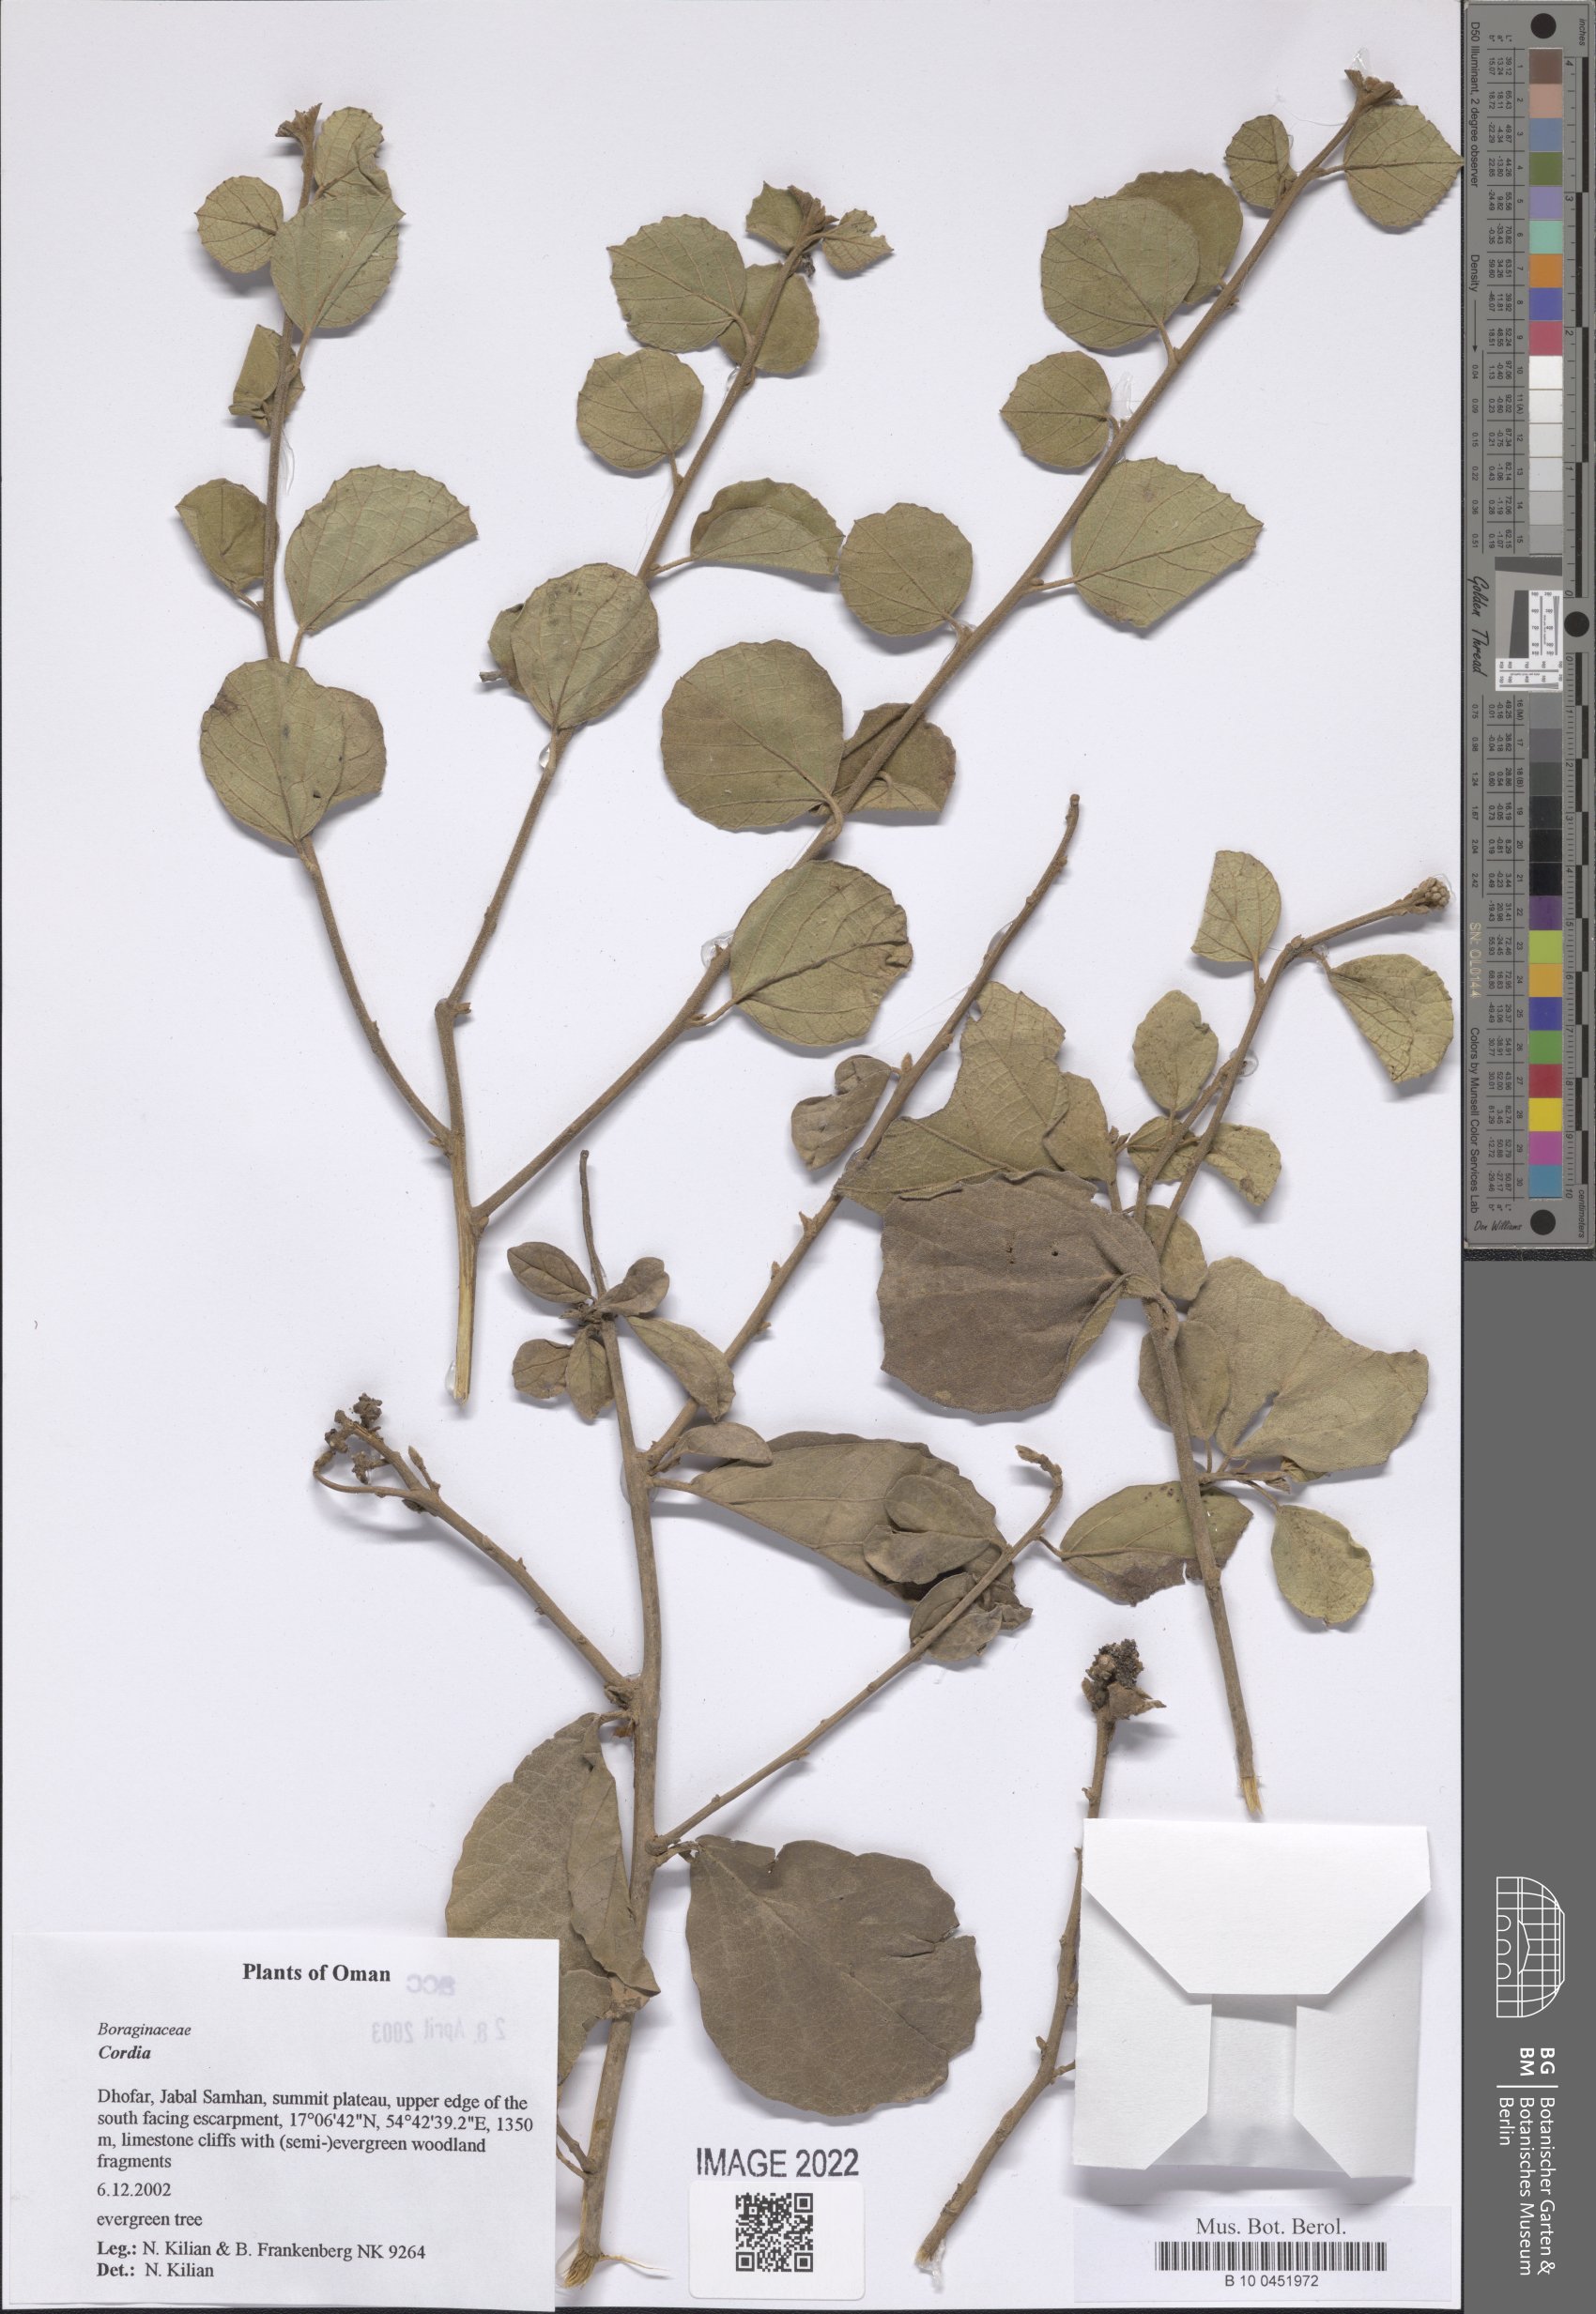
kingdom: Plantae
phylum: Tracheophyta
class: Magnoliopsida
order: Boraginales
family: Cordiaceae
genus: Cordia
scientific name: Cordia
